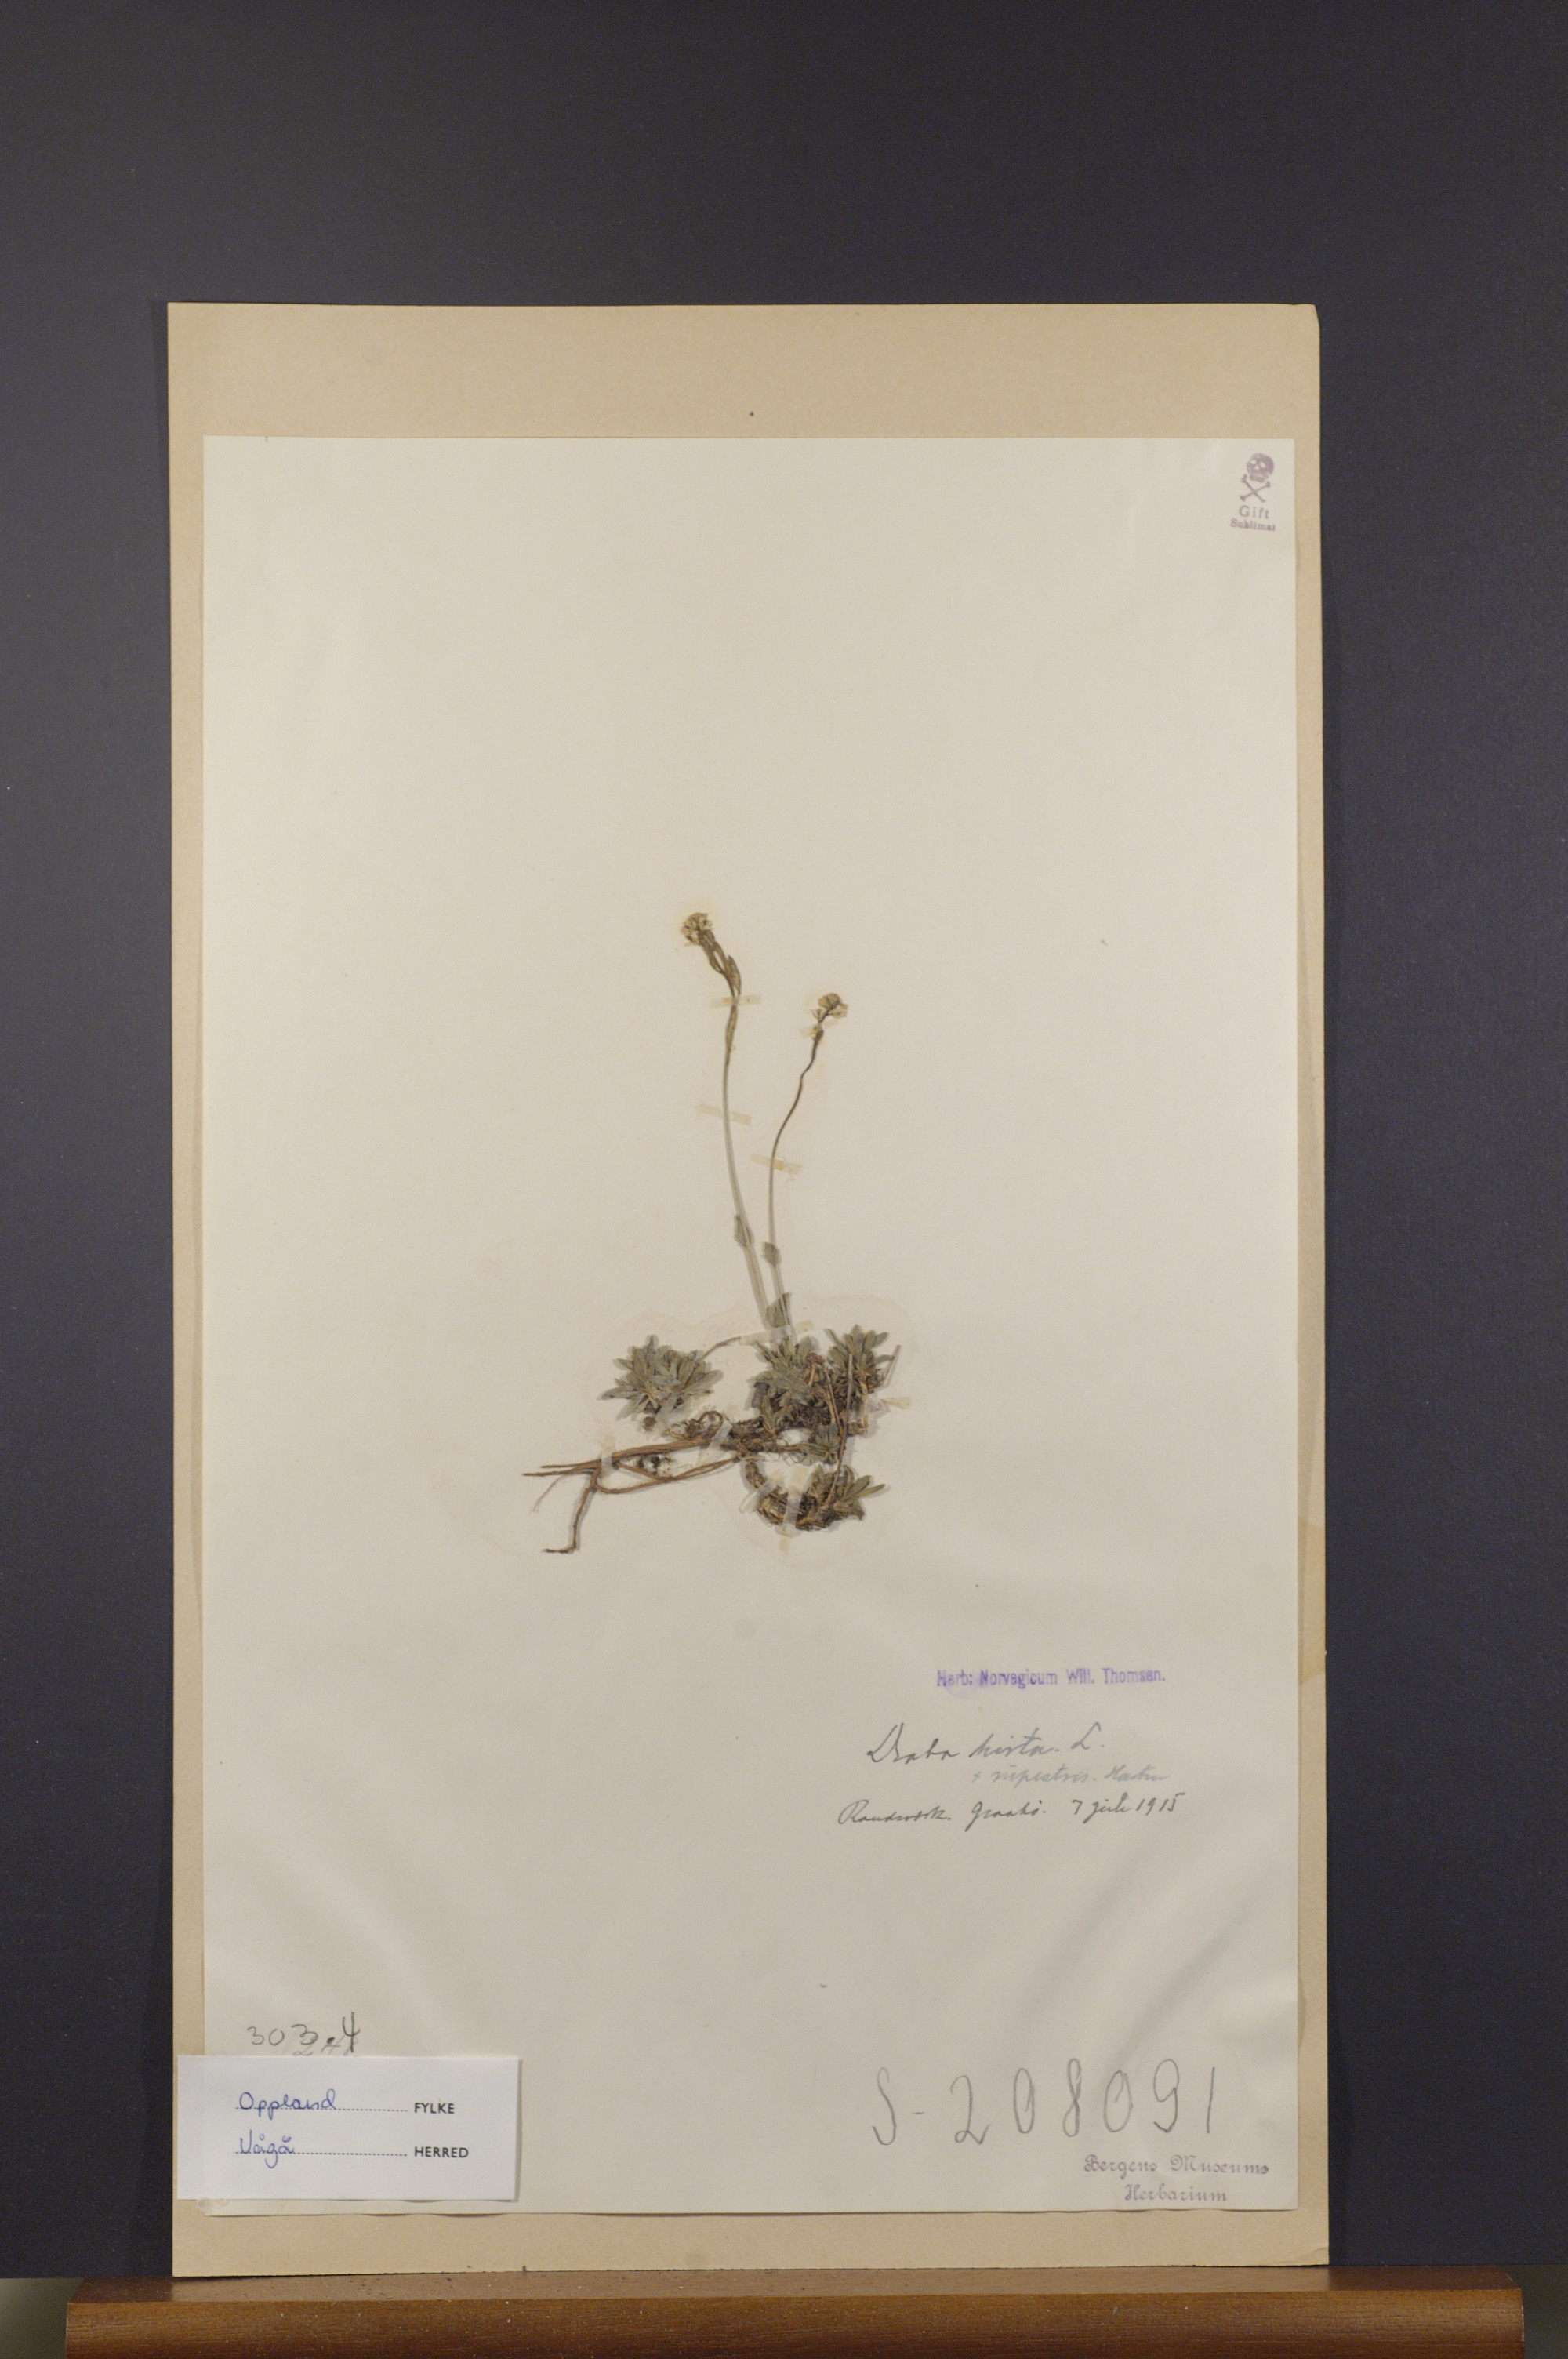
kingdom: Plantae
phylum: Tracheophyta
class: Magnoliopsida
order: Brassicales
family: Brassicaceae
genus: Draba
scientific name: Draba norvegica
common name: Rock whitlowgrass
